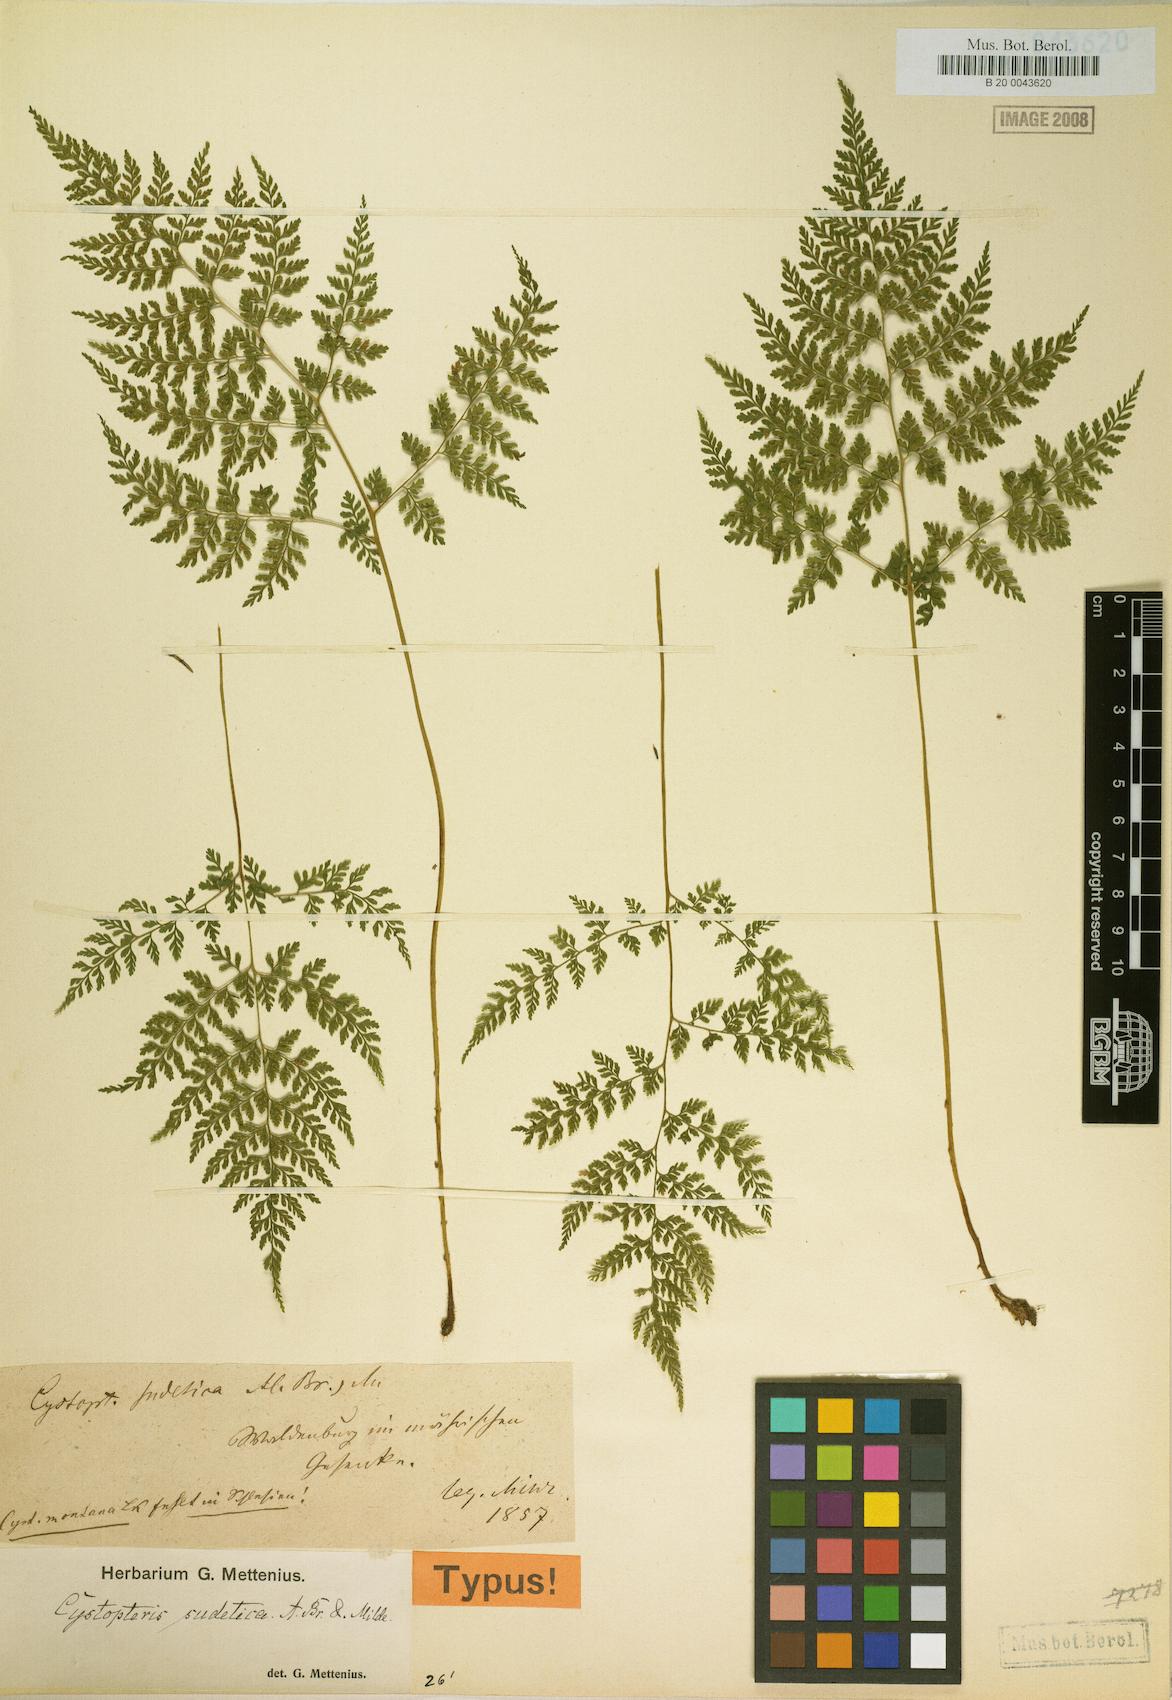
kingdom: Plantae
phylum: Tracheophyta
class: Polypodiopsida
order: Polypodiales
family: Cystopteridaceae
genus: Cystopteris
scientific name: Cystopteris sudetica
